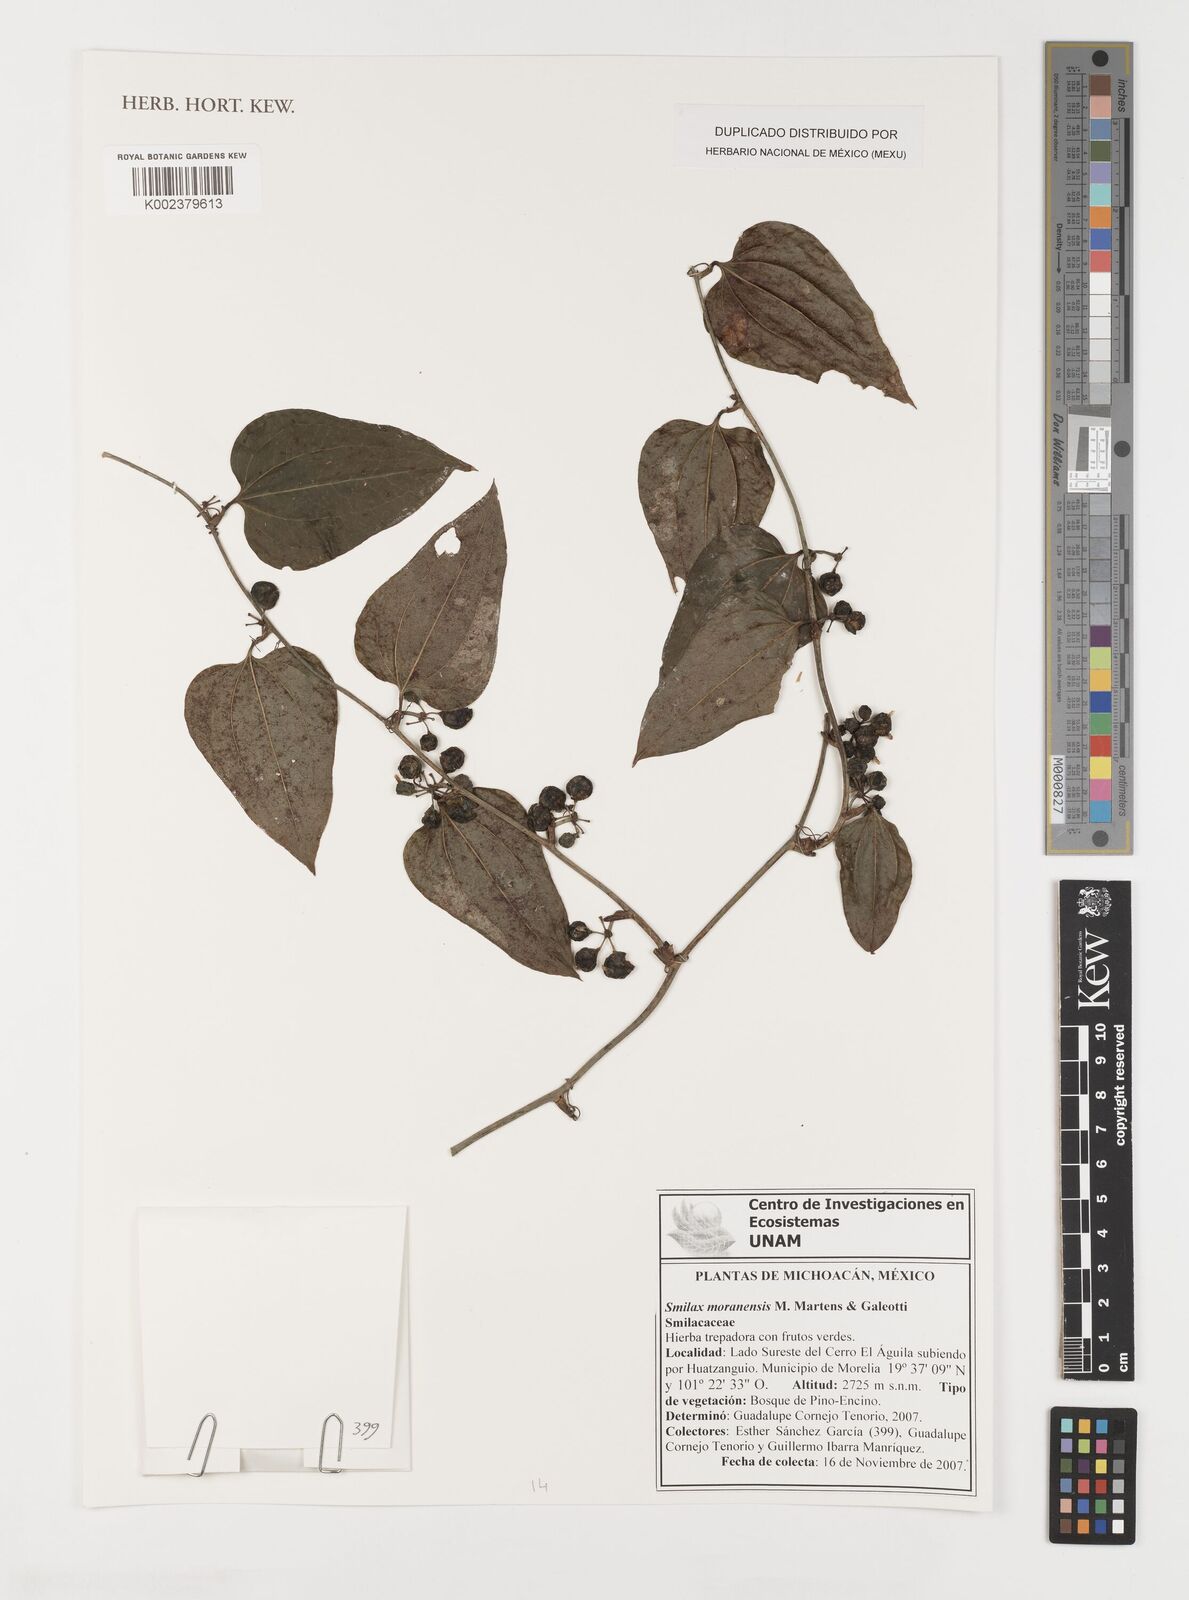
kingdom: Plantae
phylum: Tracheophyta
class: Liliopsida
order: Liliales
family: Smilacaceae
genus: Smilax
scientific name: Smilax moranensis
